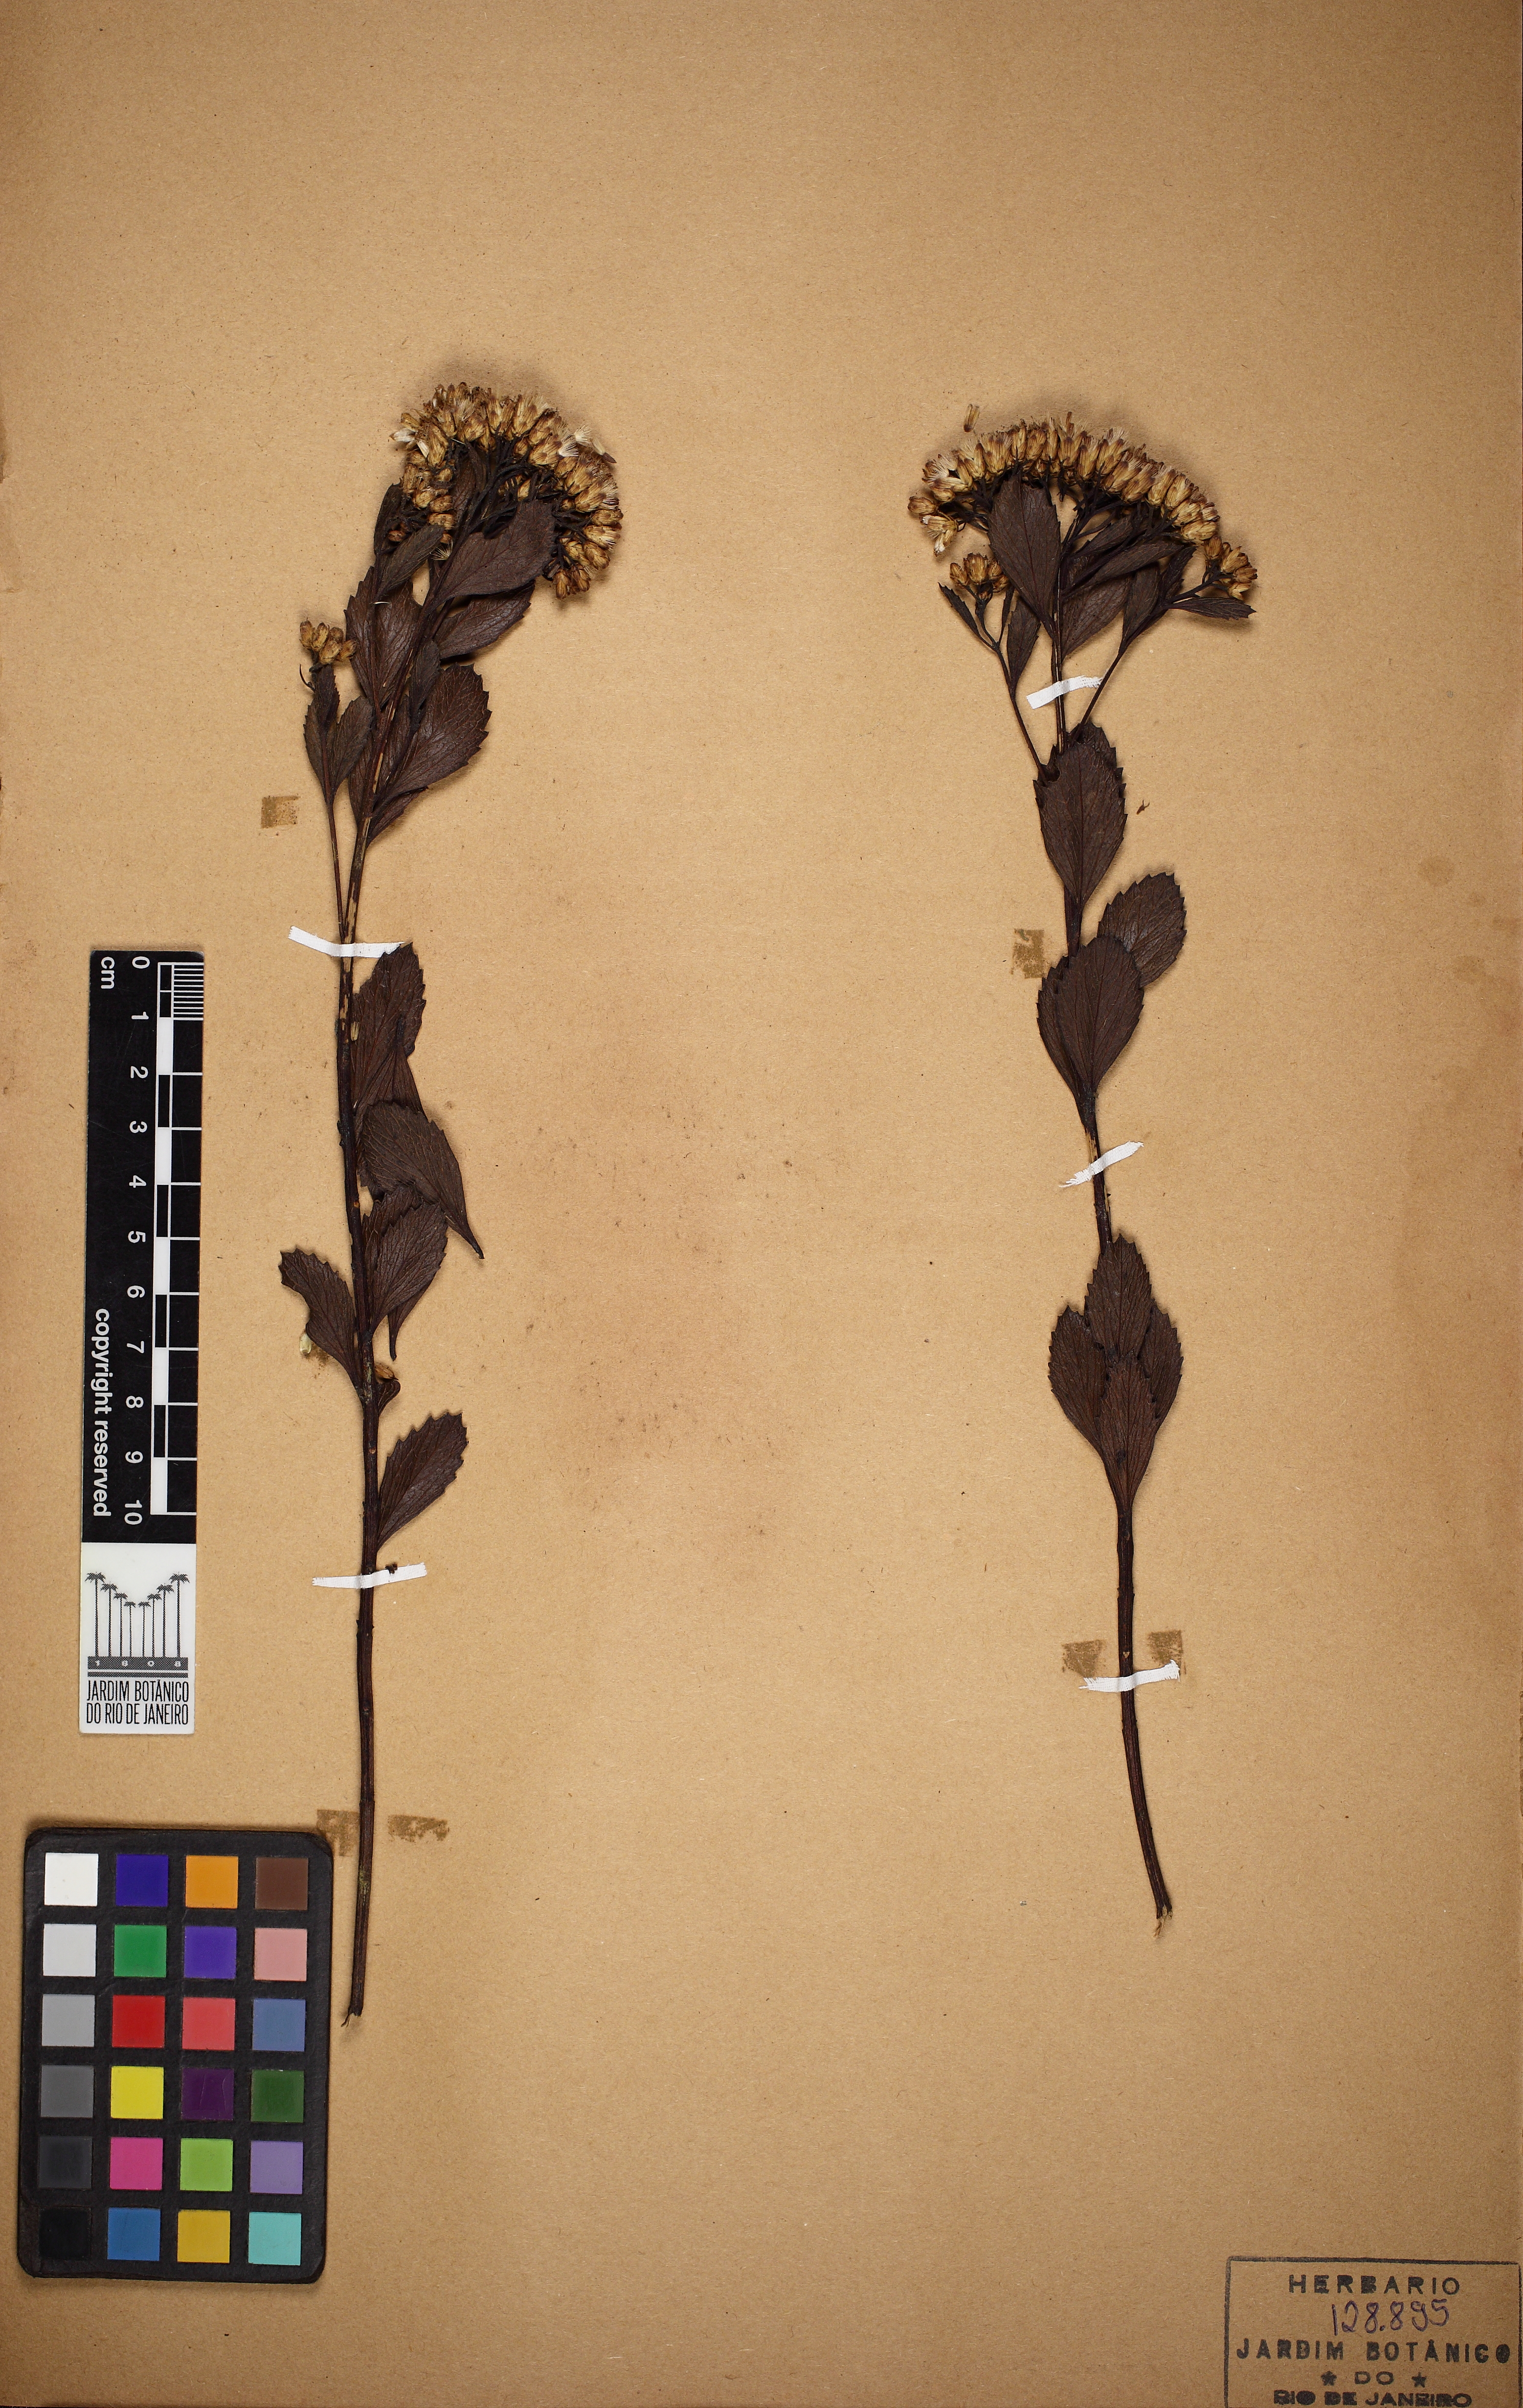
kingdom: Plantae
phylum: Tracheophyta
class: Magnoliopsida
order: Asterales
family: Asteraceae
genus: Symphyopappus
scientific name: Symphyopappus reticulatus
